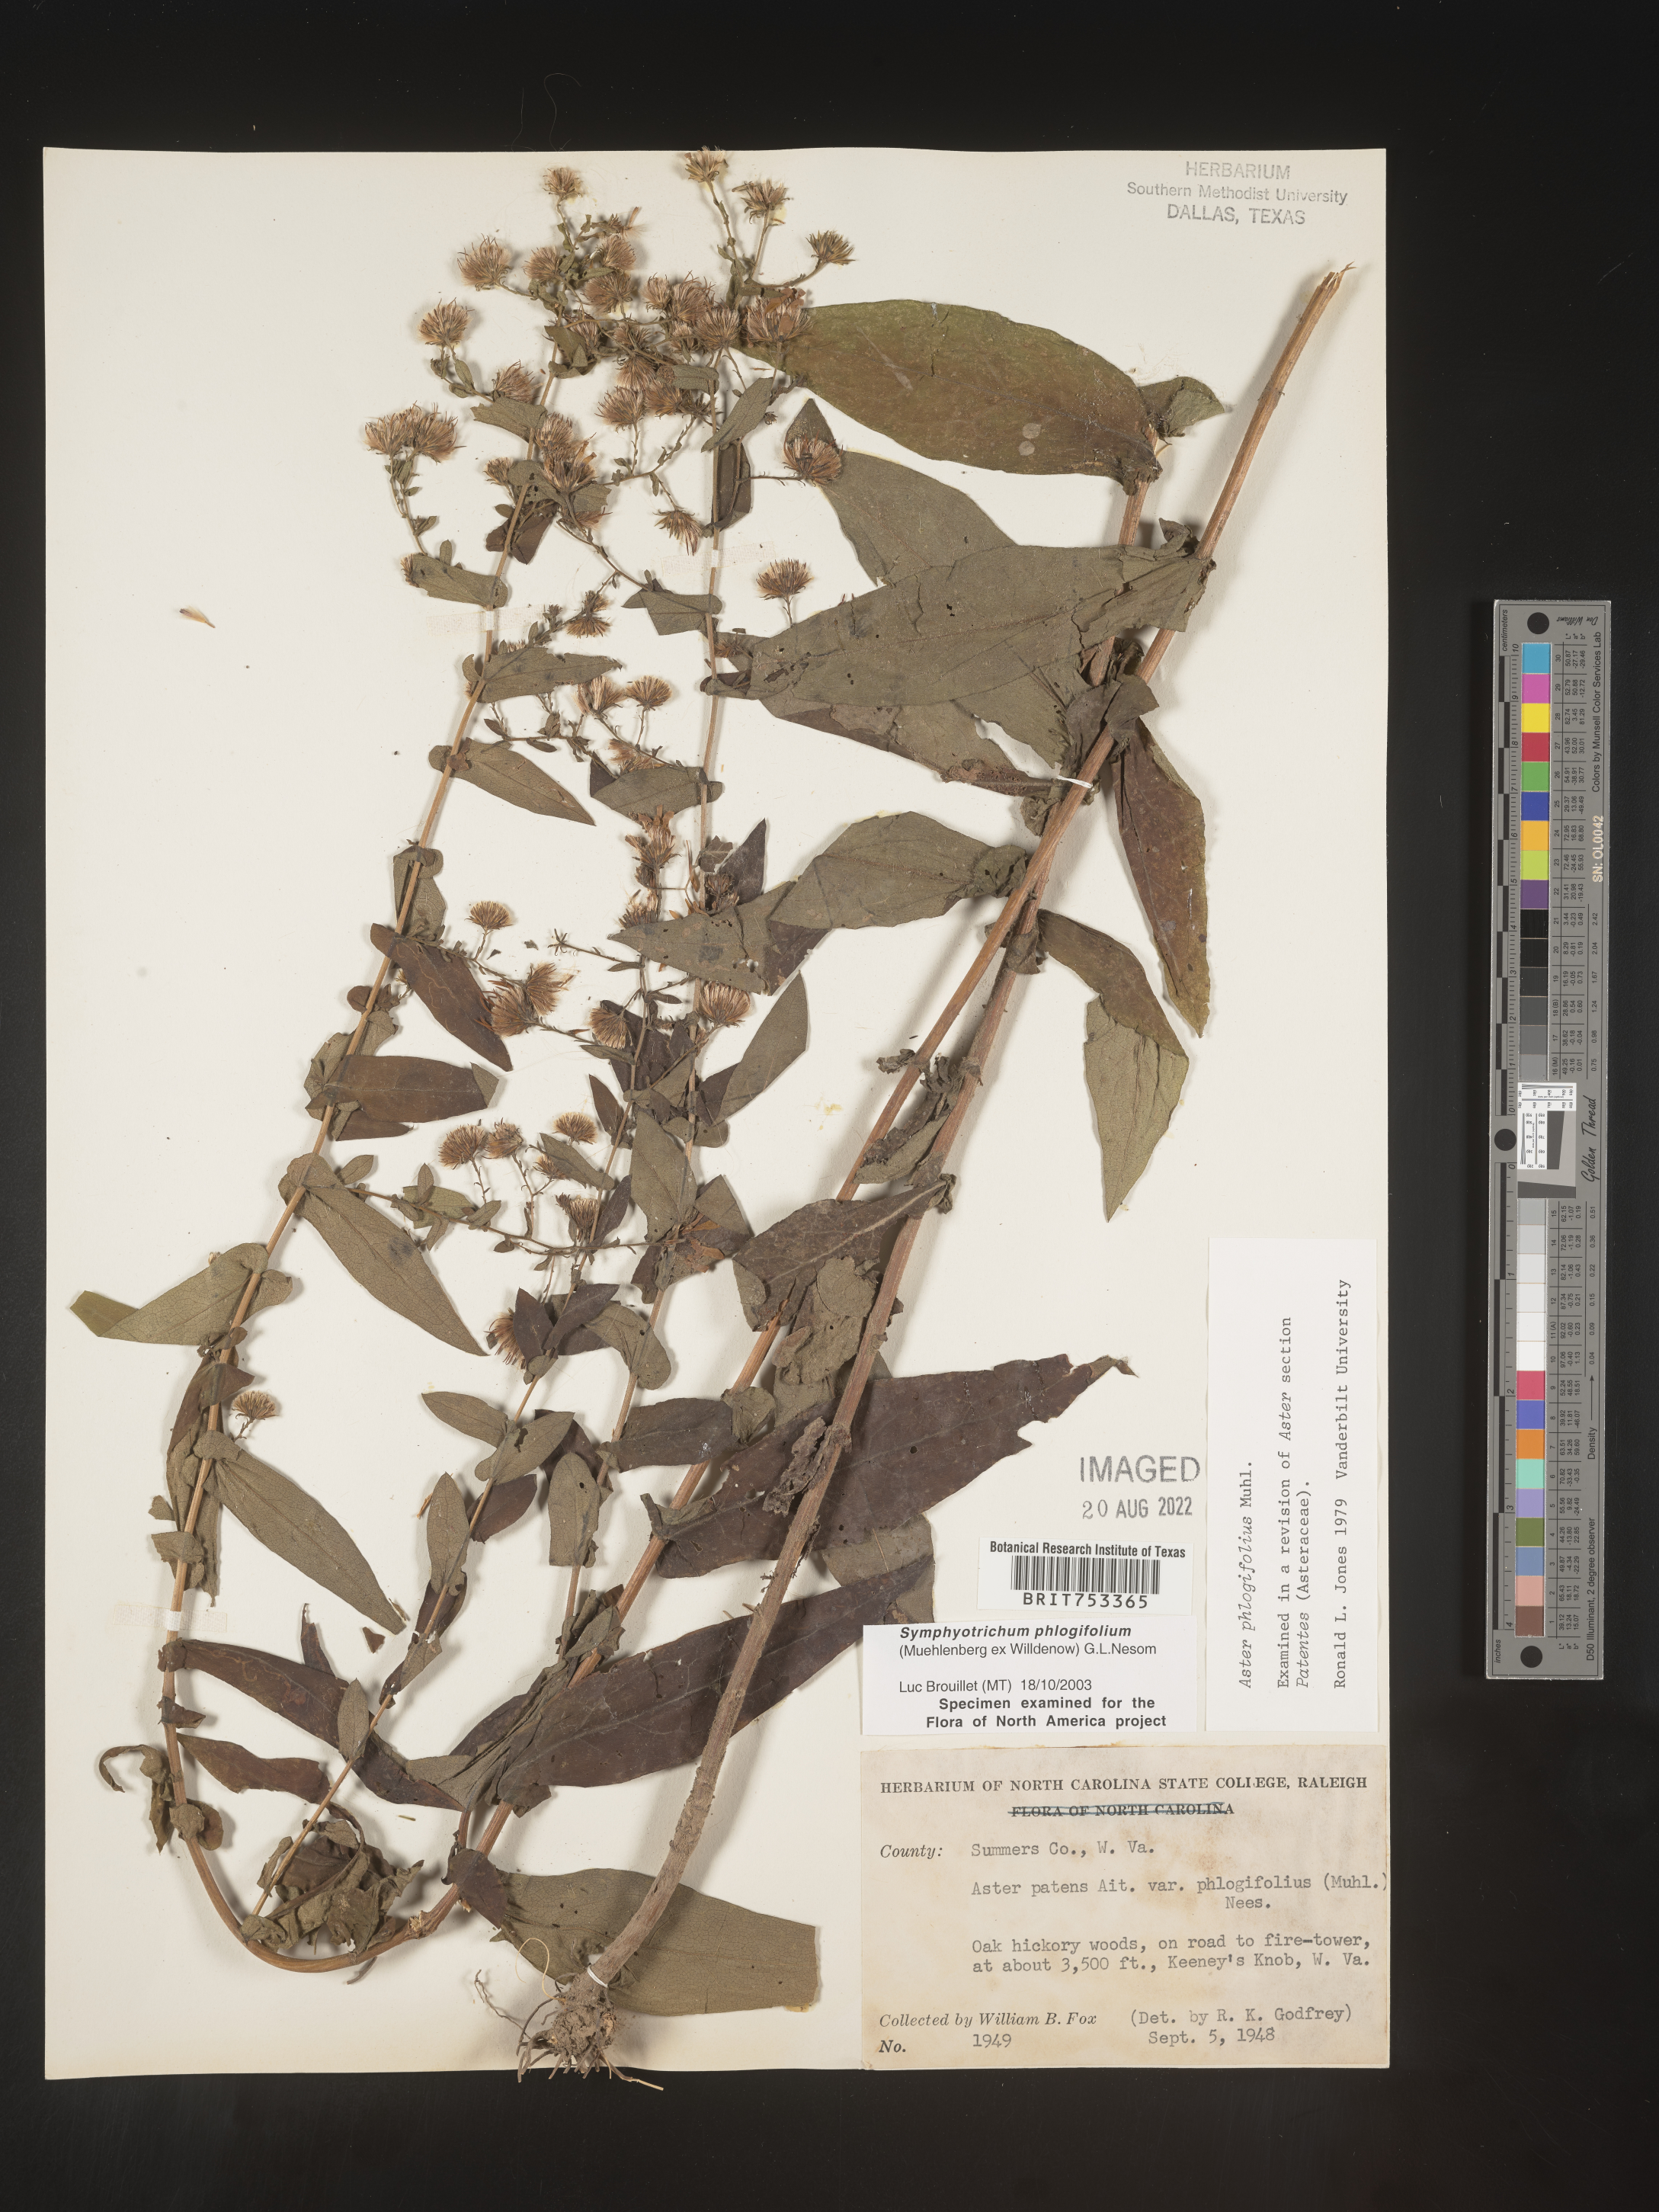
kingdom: Plantae
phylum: Tracheophyta
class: Magnoliopsida
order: Asterales
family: Asteraceae
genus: Symphyotrichum
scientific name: Symphyotrichum phlogifolium
